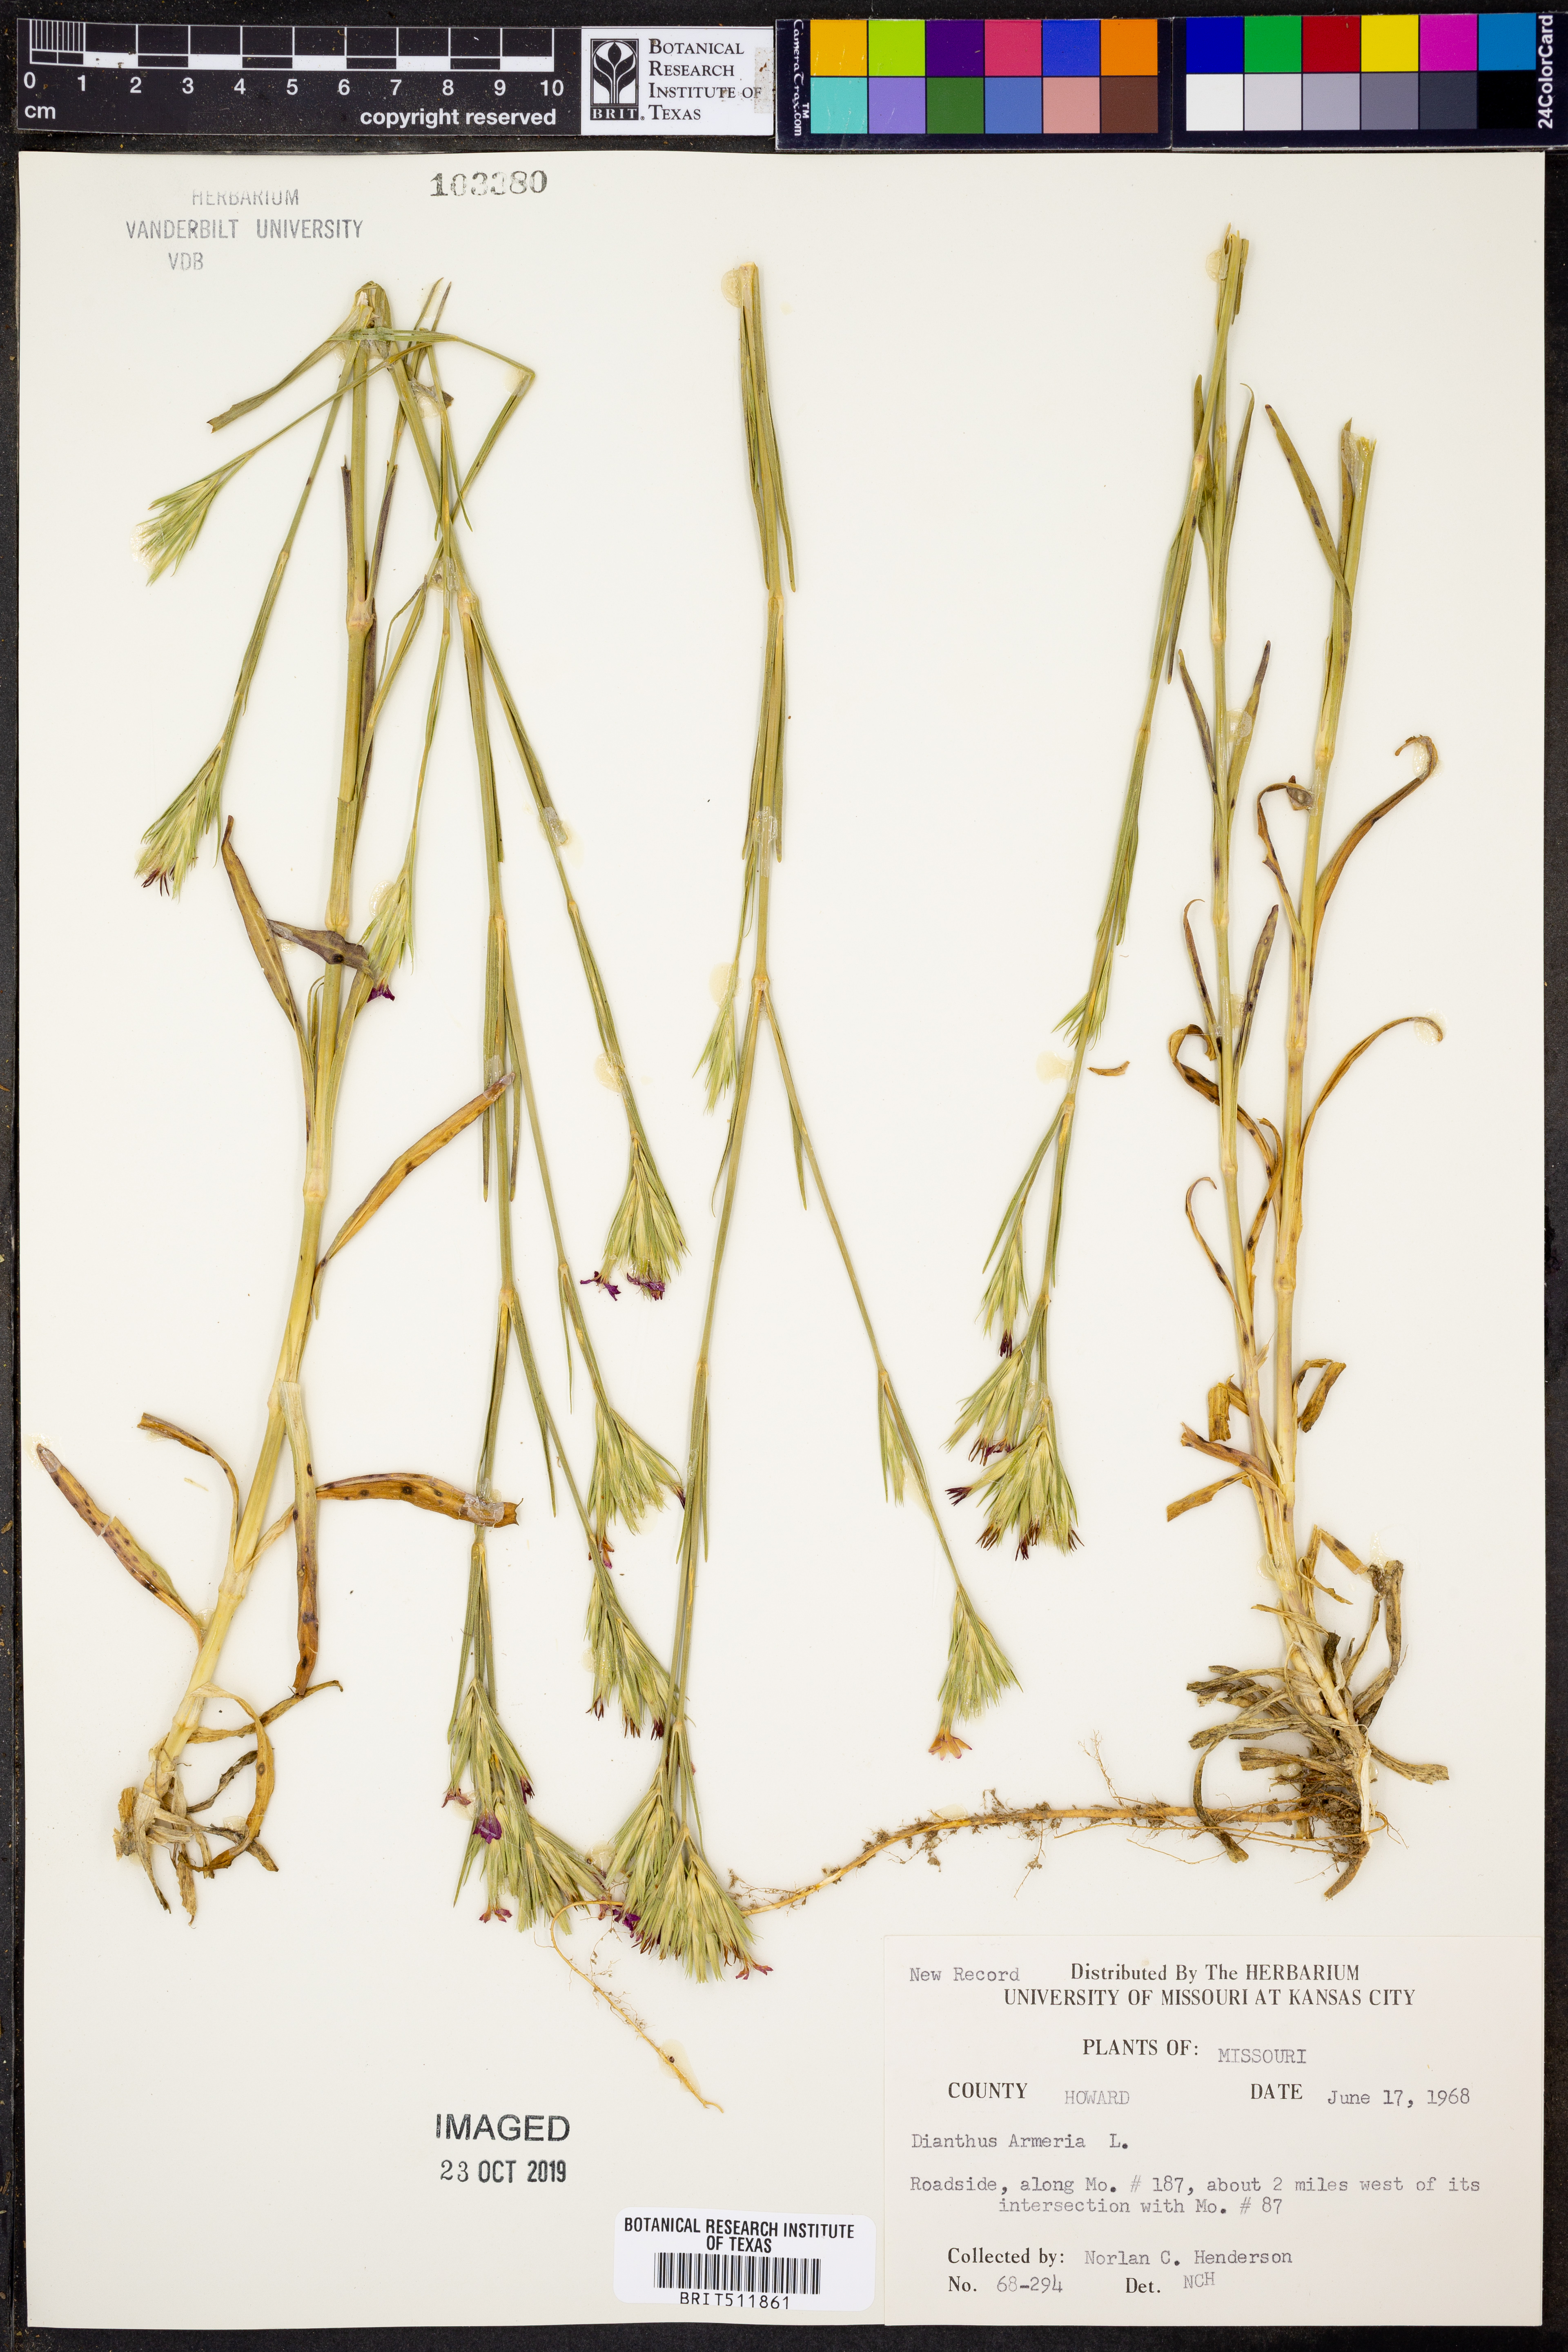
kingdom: Plantae
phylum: Tracheophyta
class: Magnoliopsida
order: Caryophyllales
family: Caryophyllaceae
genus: Dianthus
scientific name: Dianthus armeria
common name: Deptford pink
